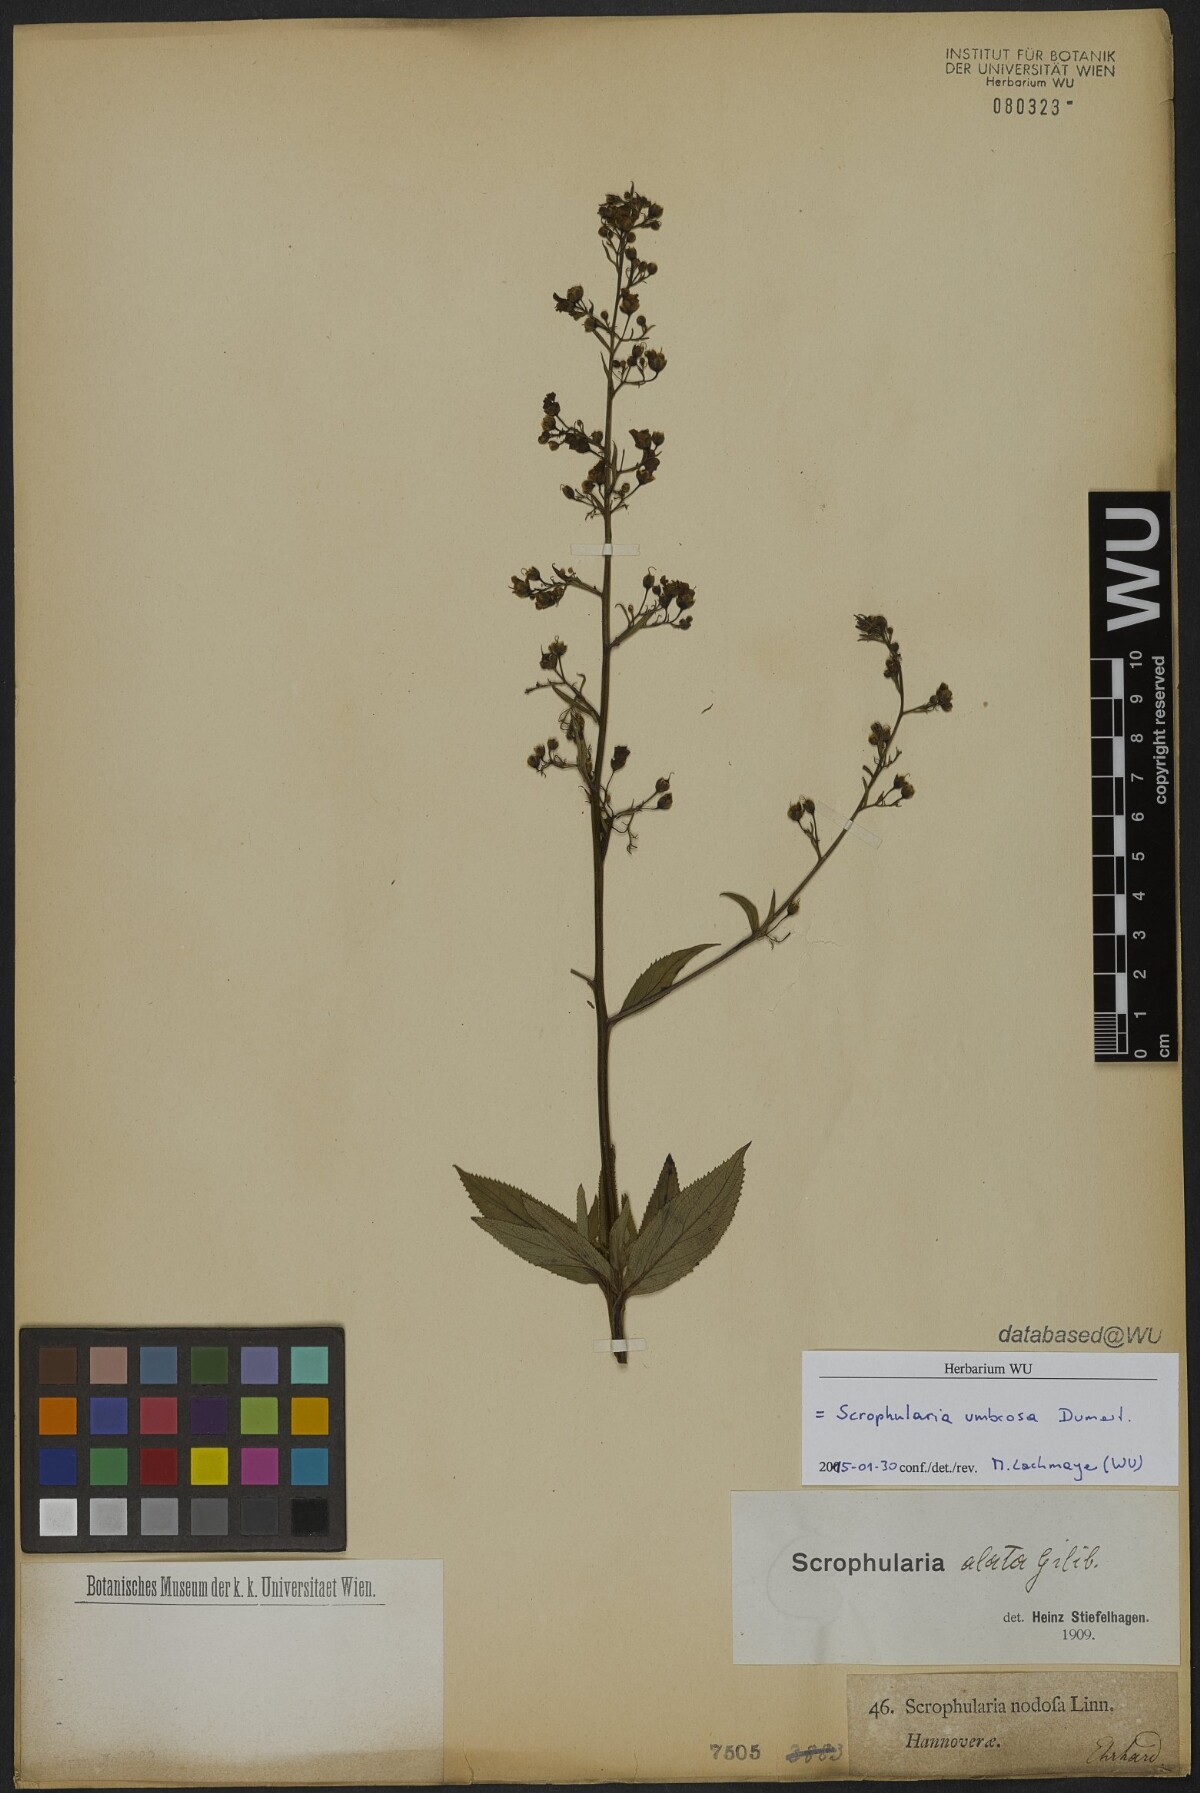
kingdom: Plantae
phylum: Tracheophyta
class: Magnoliopsida
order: Lamiales
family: Scrophulariaceae
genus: Scrophularia
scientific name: Scrophularia umbrosa
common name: Green figwort
